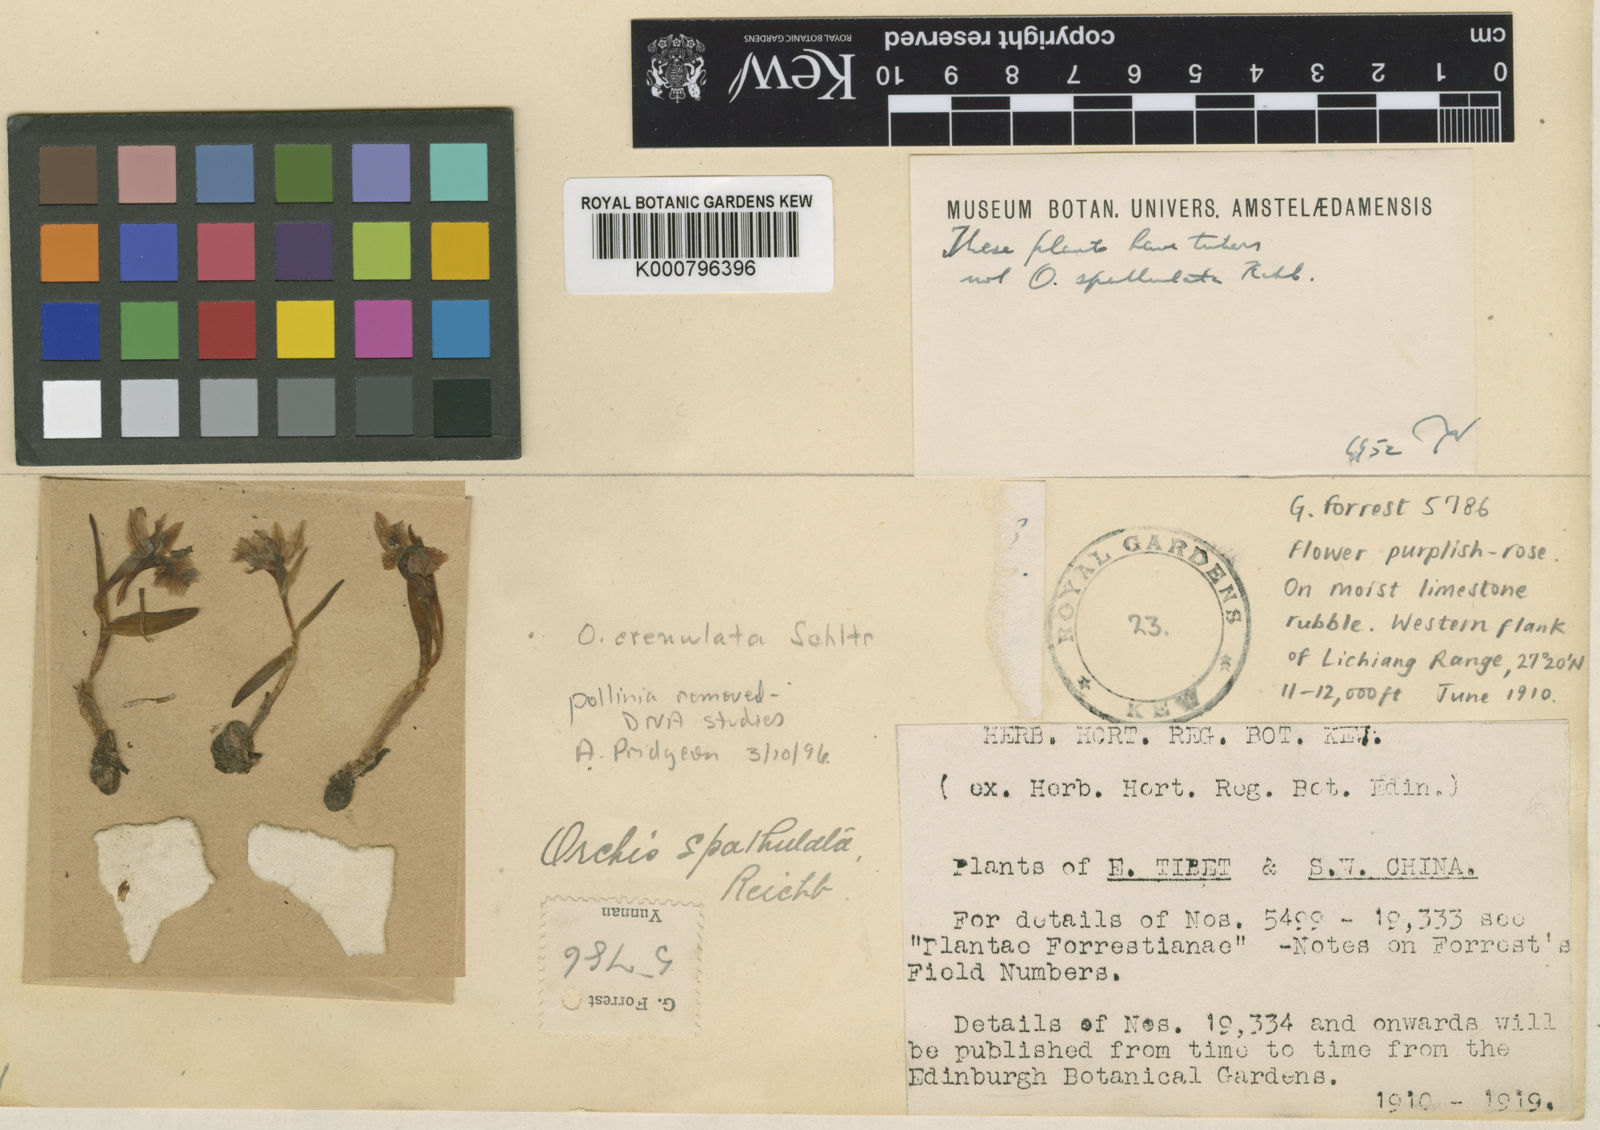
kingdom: Plantae
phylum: Tracheophyta
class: Liliopsida
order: Asparagales
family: Orchidaceae
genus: Hemipilia
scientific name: Hemipilia
